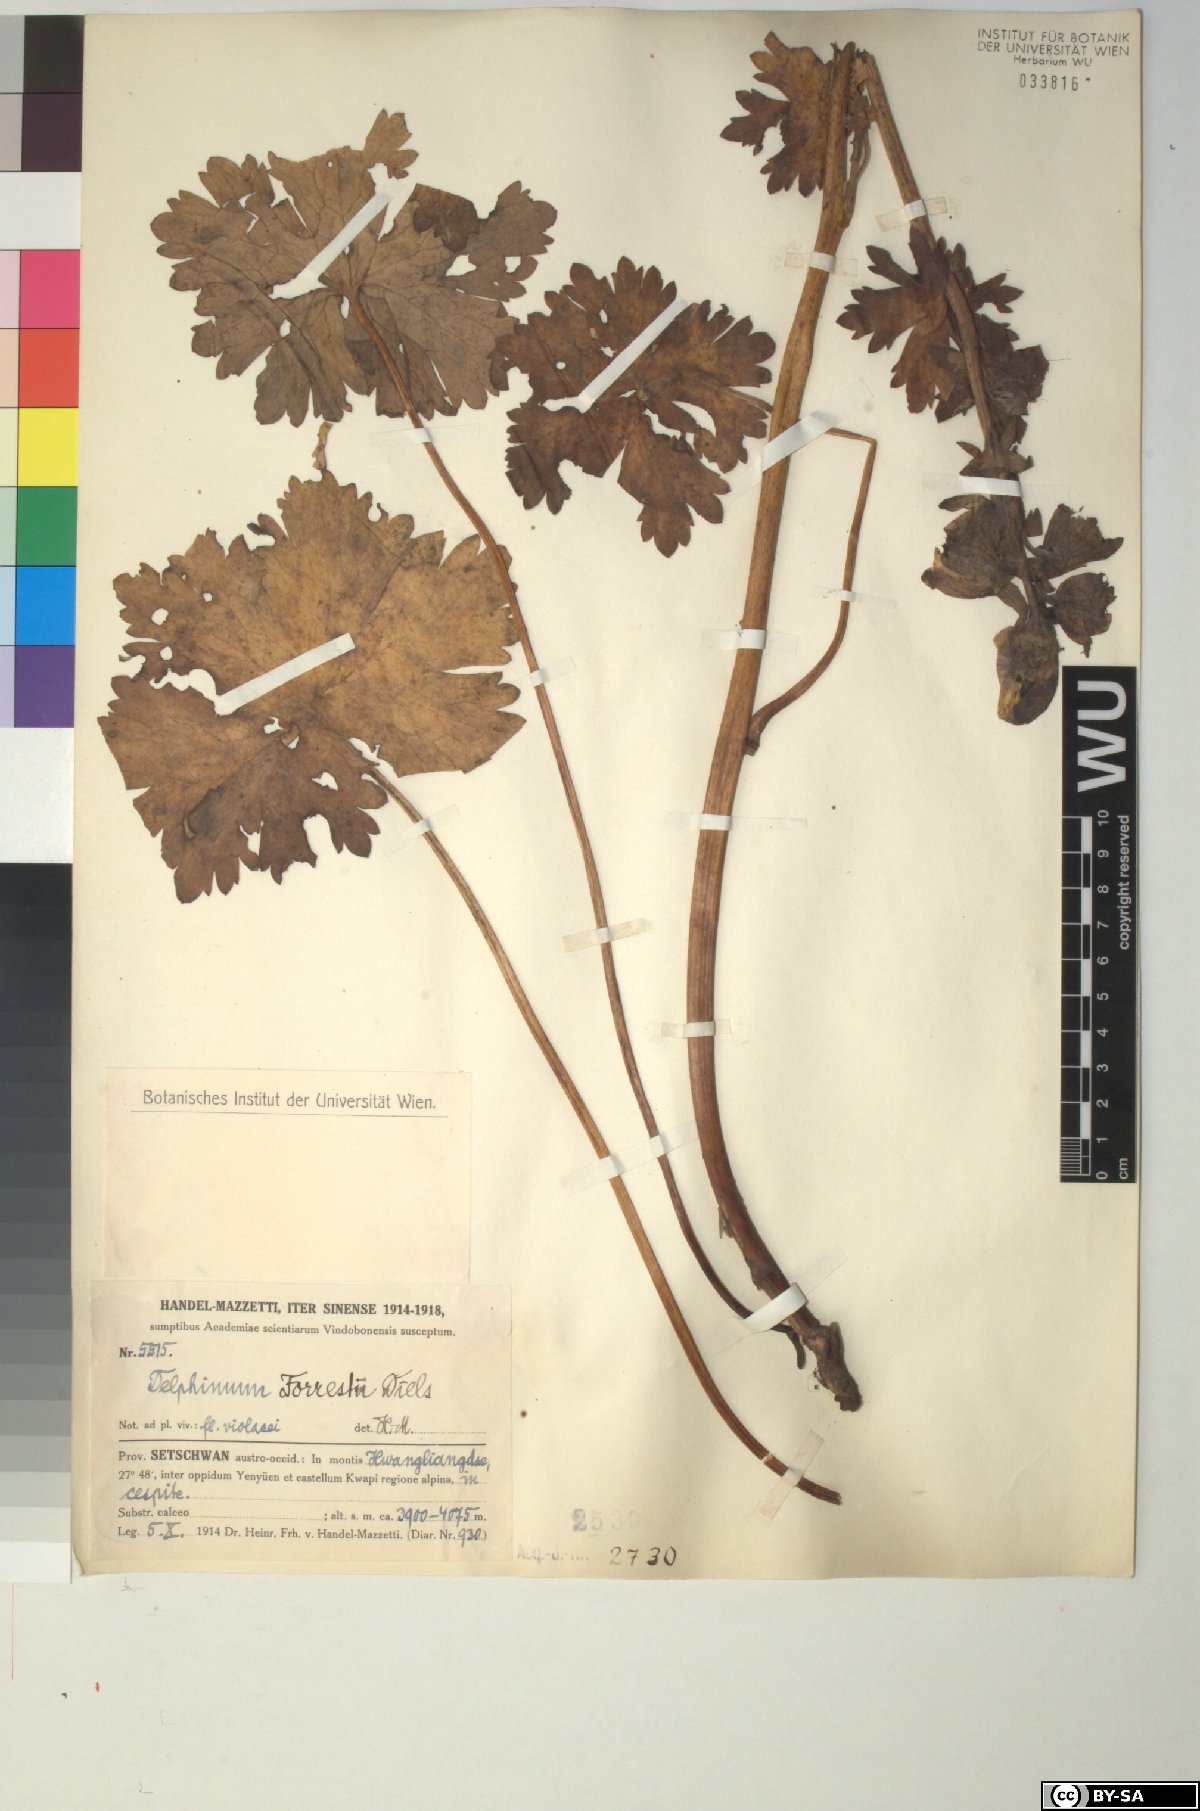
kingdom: Plantae
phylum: Tracheophyta
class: Magnoliopsida
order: Ranunculales
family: Ranunculaceae
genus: Delphinium
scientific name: Delphinium forrestii
